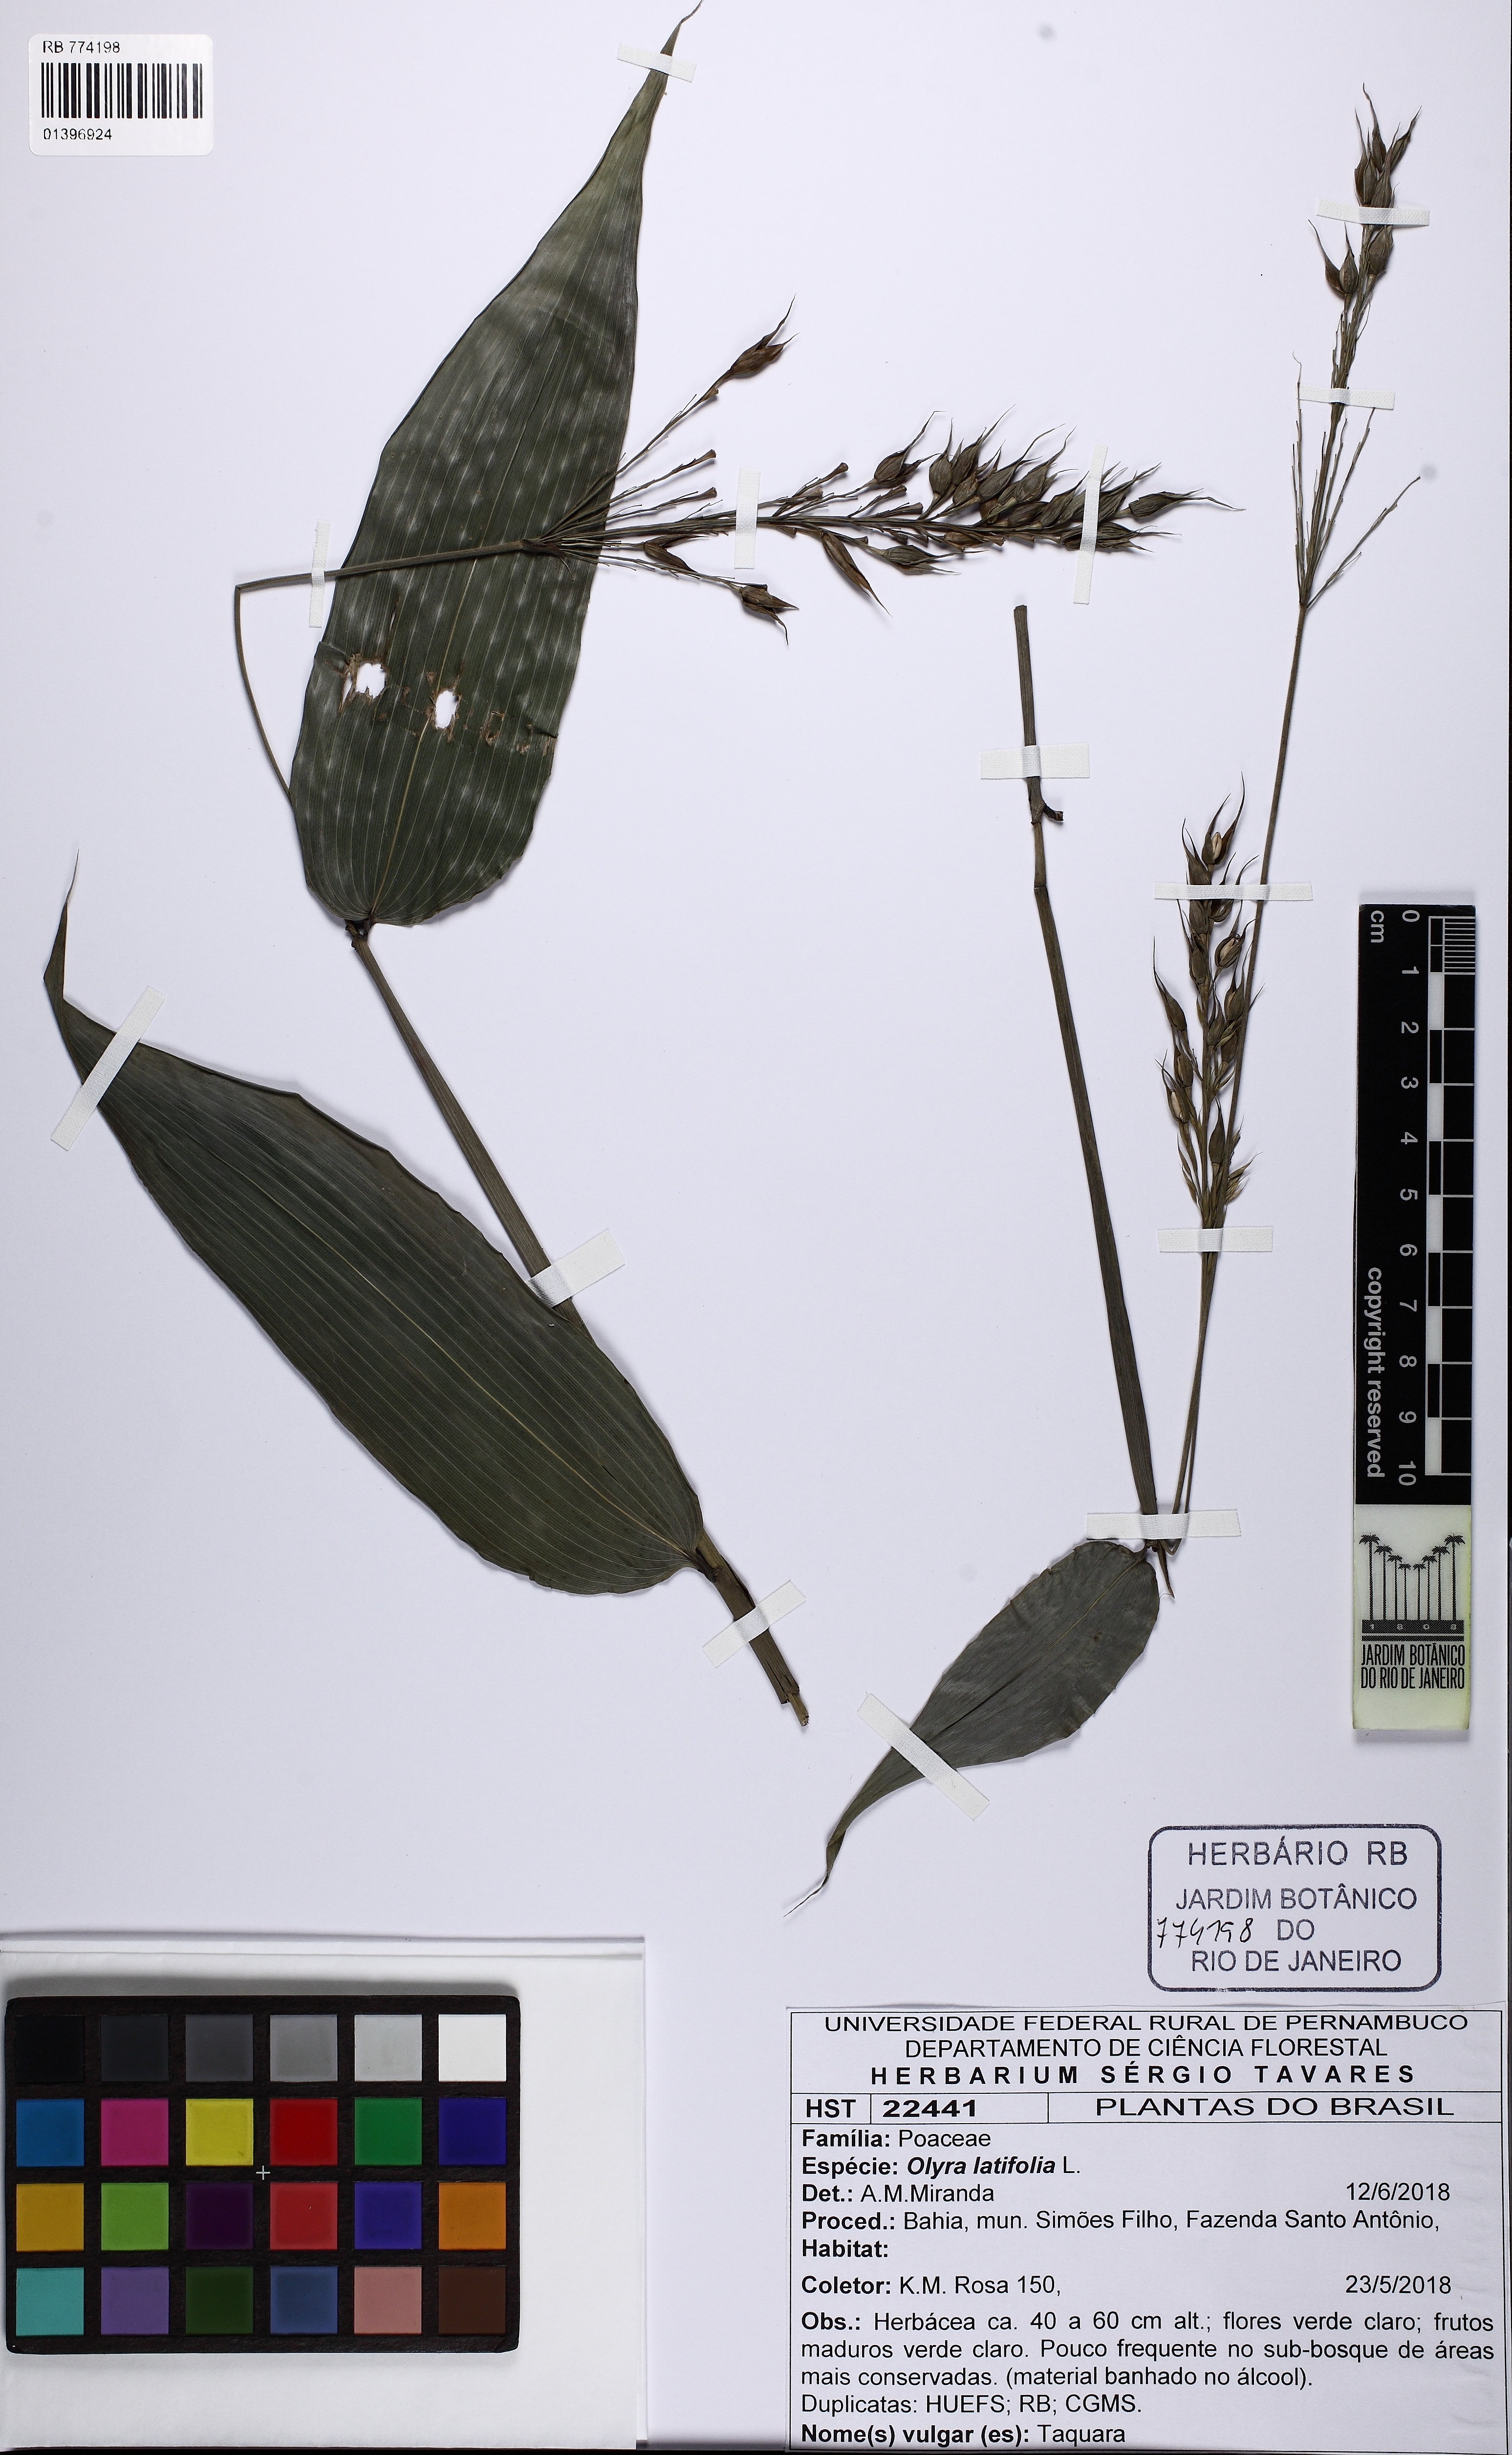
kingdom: Plantae
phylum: Tracheophyta
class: Liliopsida
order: Poales
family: Poaceae
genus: Olyra
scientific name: Olyra latifolia
